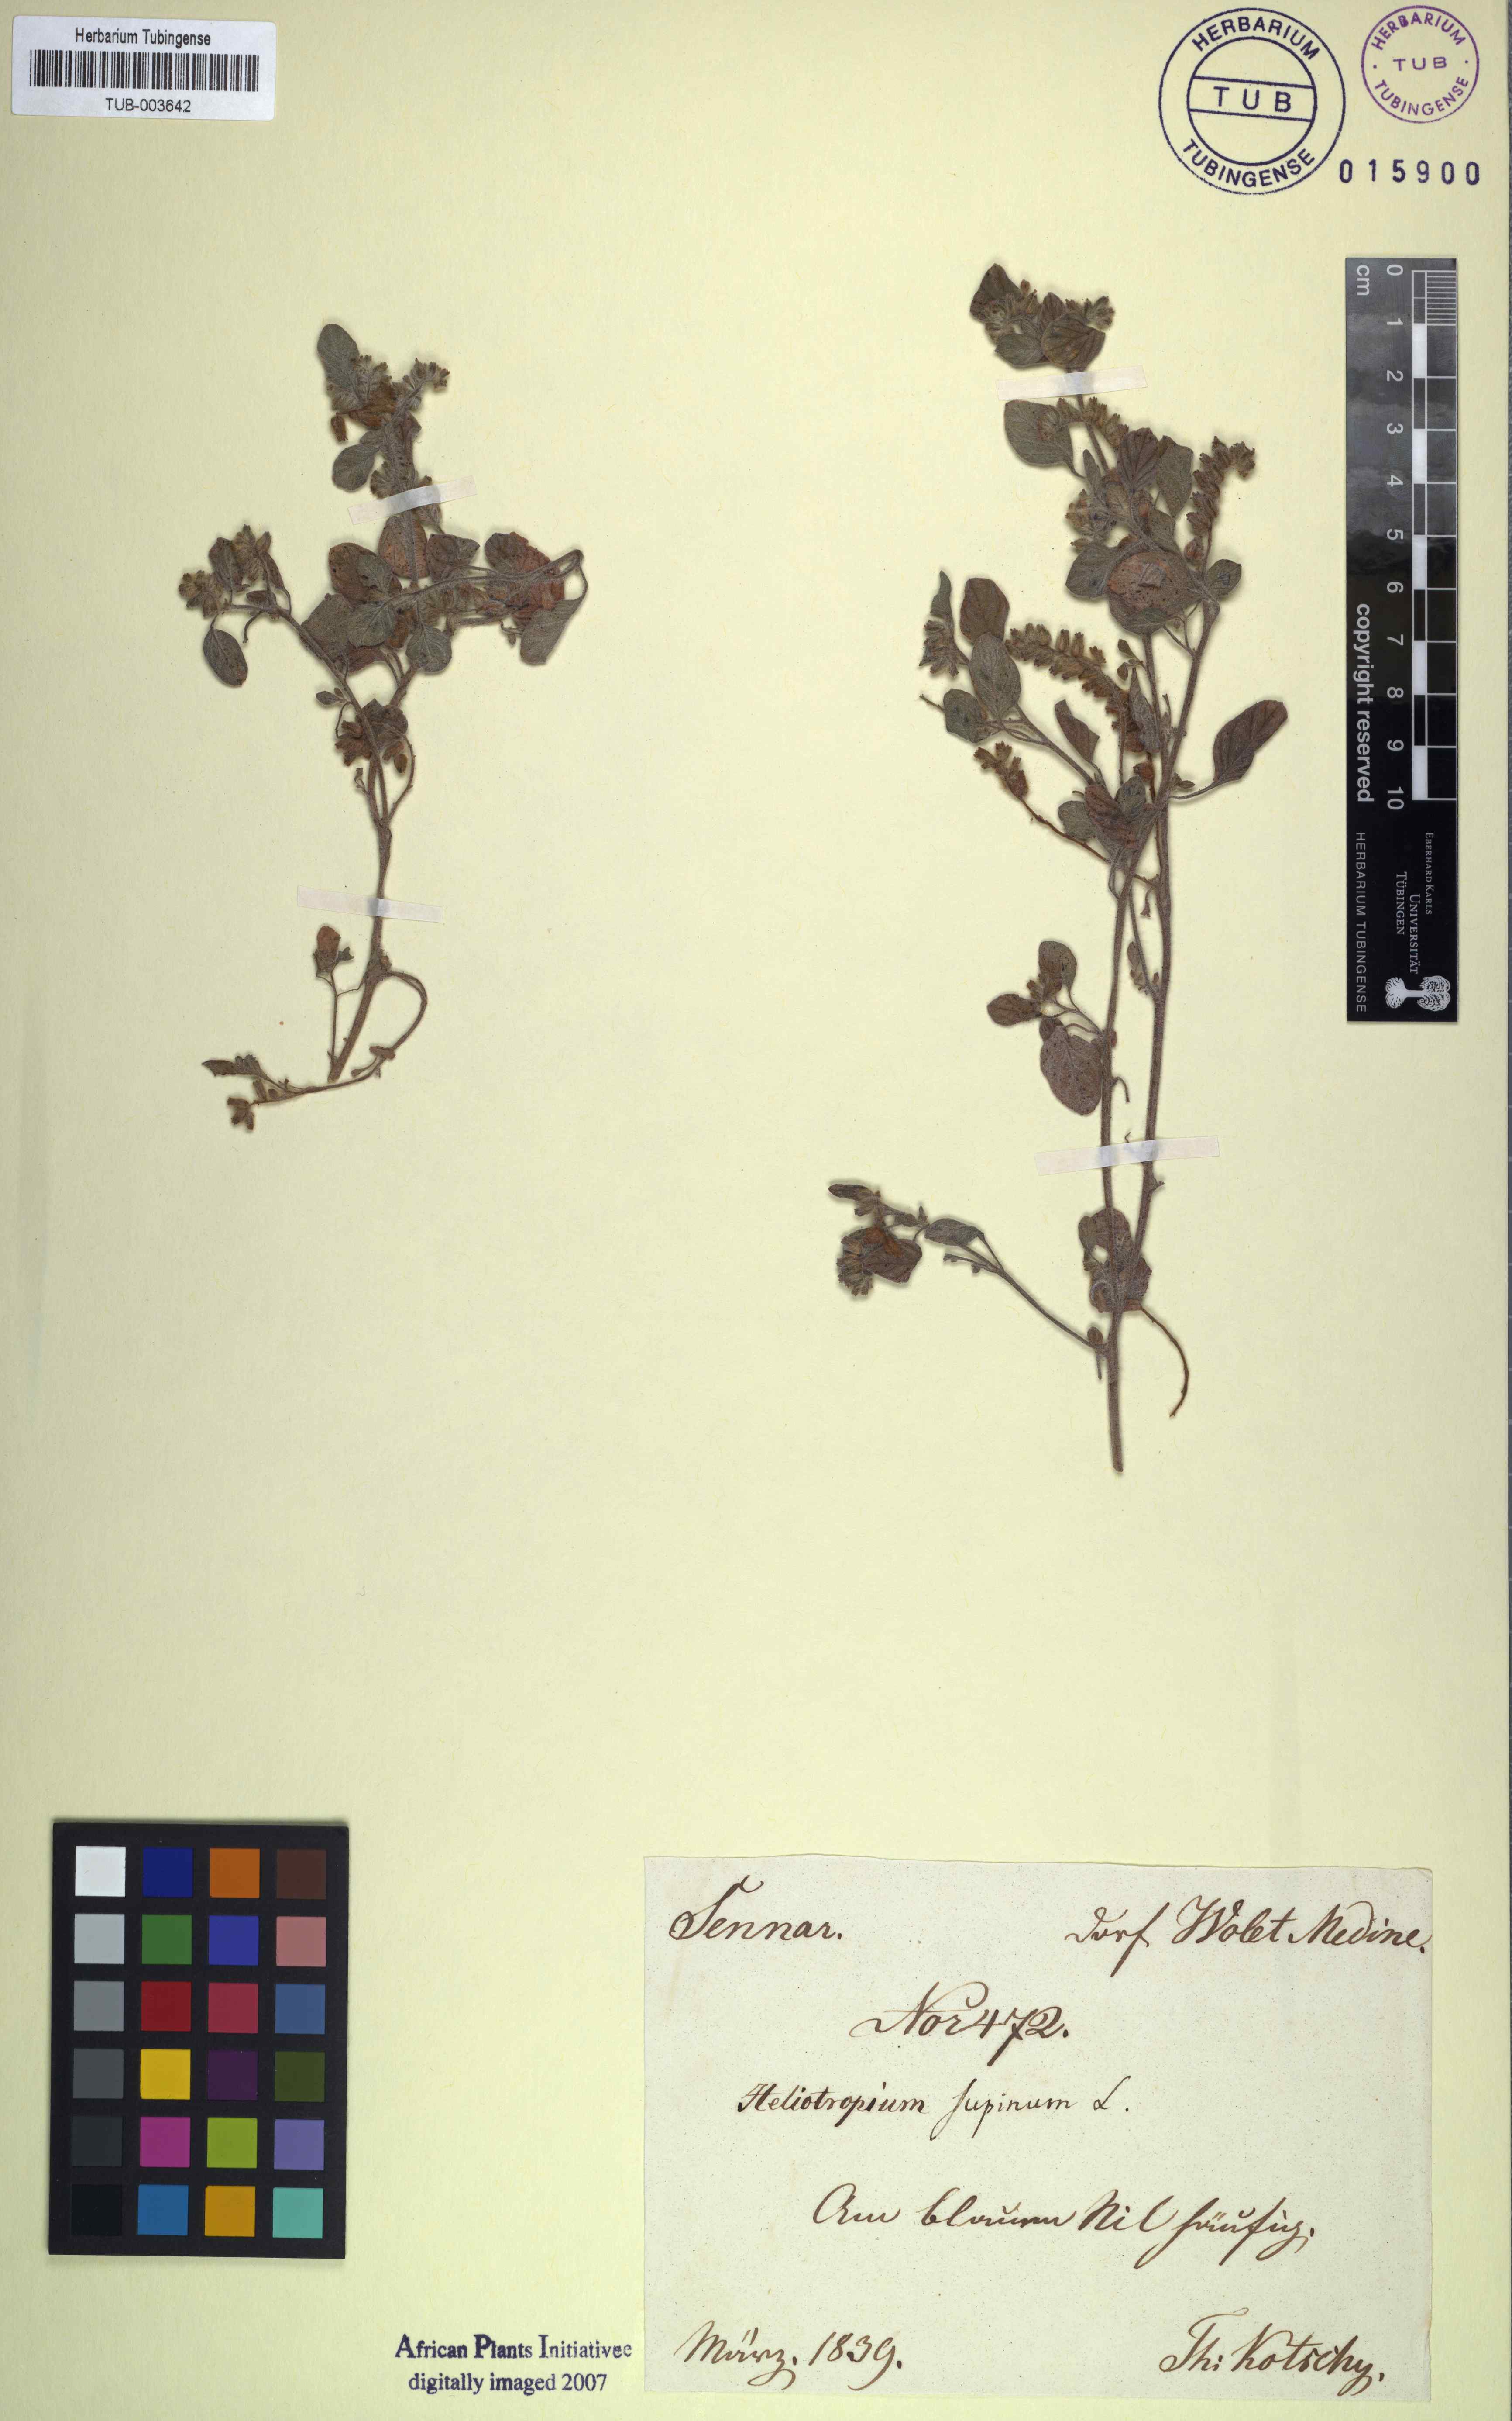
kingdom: Plantae
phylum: Tracheophyta
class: Magnoliopsida
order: Boraginales
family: Heliotropiaceae
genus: Heliotropium
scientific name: Heliotropium supinum
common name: Dwarf heliotrope
